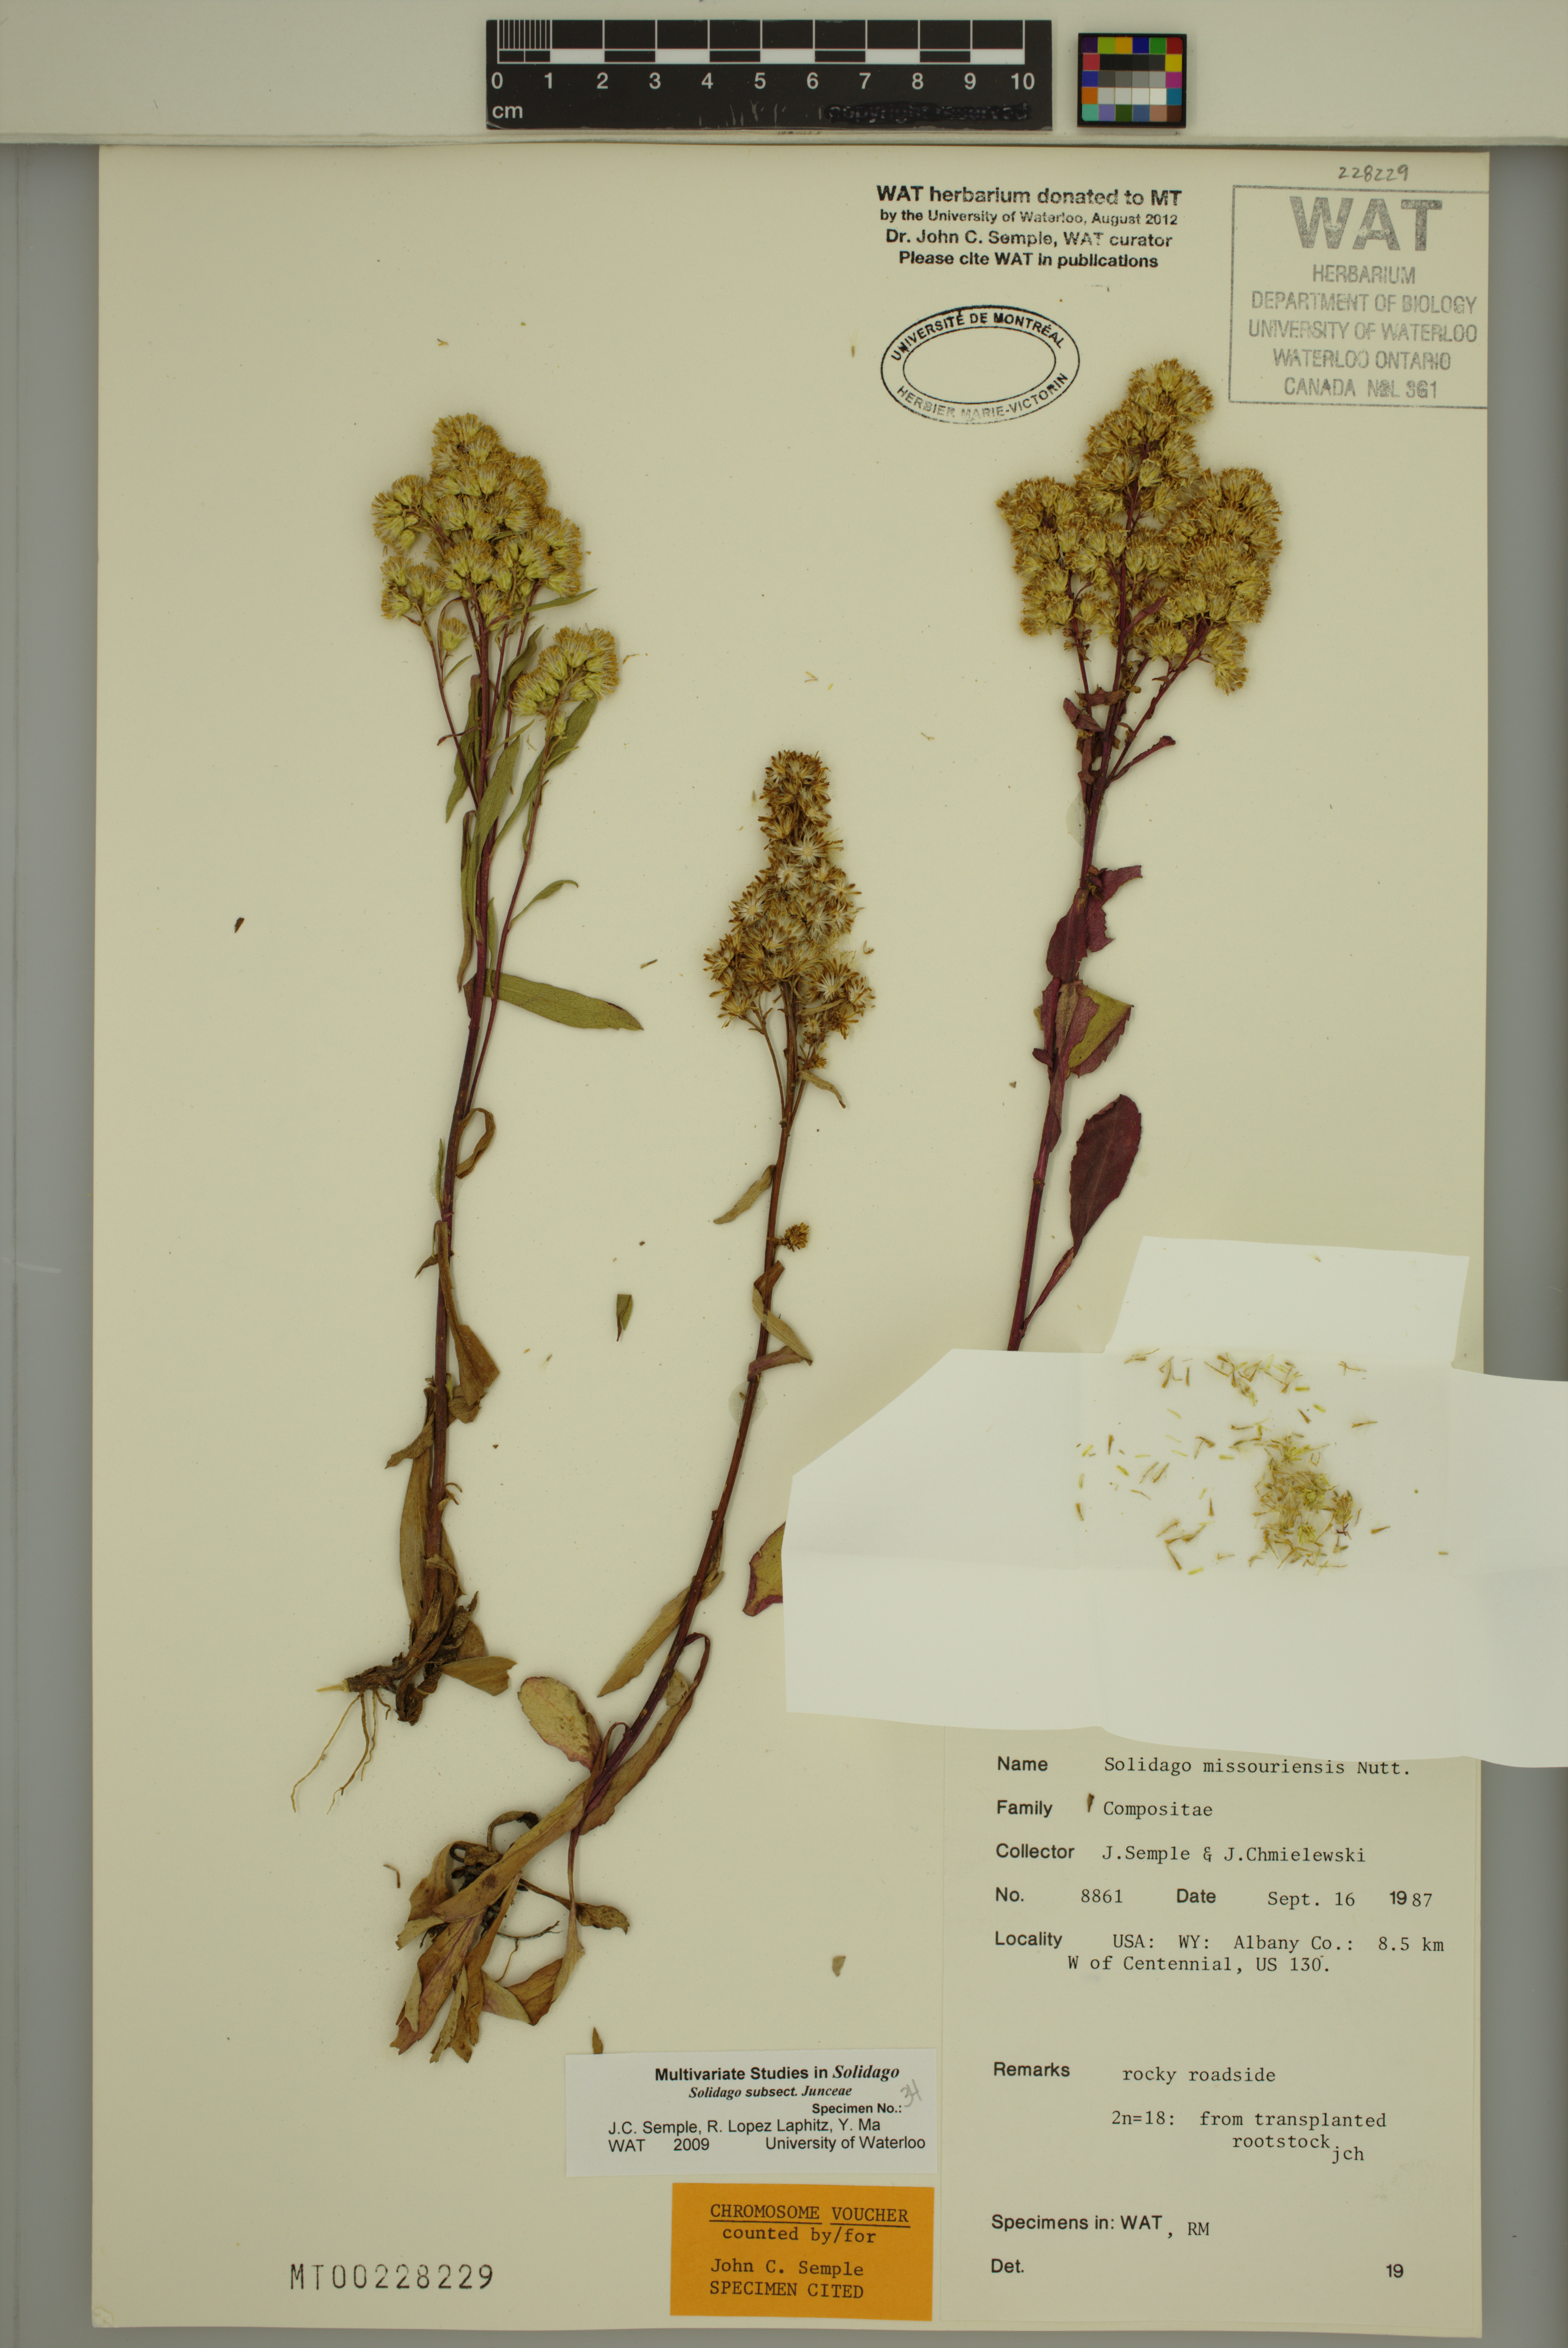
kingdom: Plantae
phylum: Tracheophyta
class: Magnoliopsida
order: Asterales
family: Asteraceae
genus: Solidago
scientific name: Solidago missouriensis
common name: Prairie goldenrod
